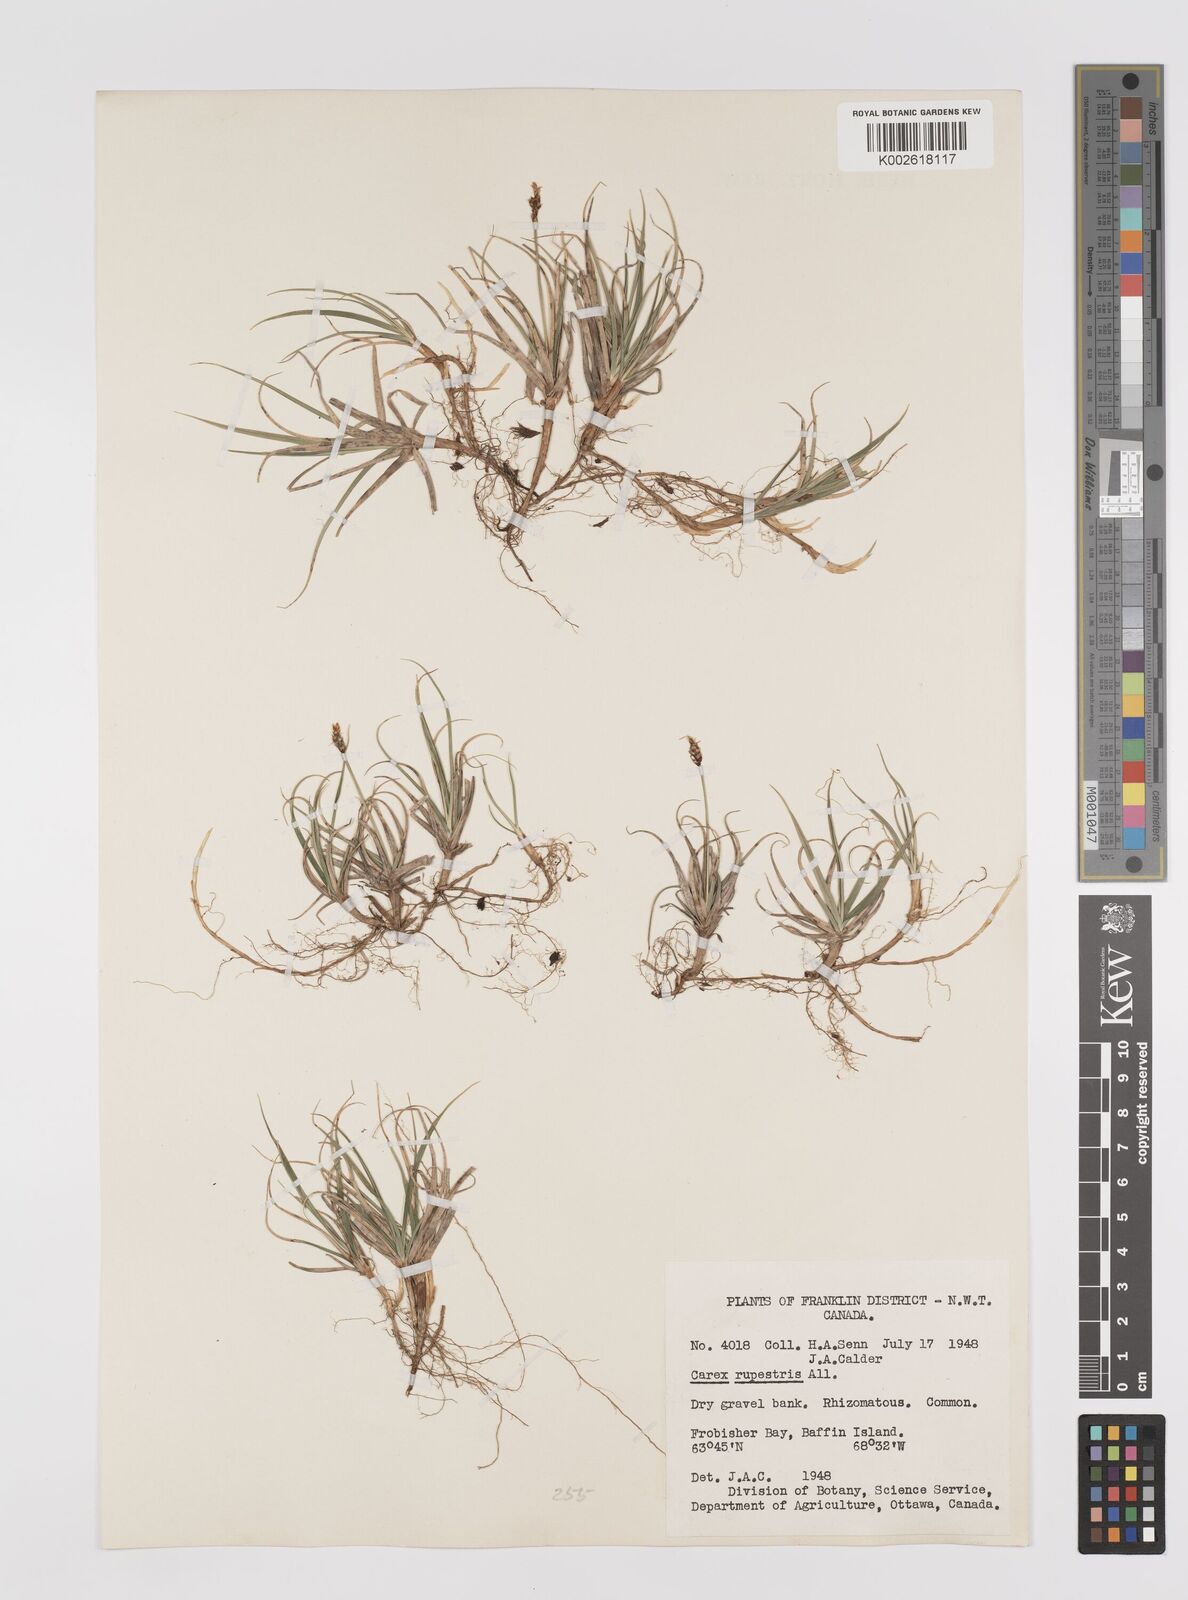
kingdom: Plantae
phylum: Tracheophyta
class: Liliopsida
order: Poales
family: Cyperaceae
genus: Carex
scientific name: Carex rupestris
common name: Rock sedge
